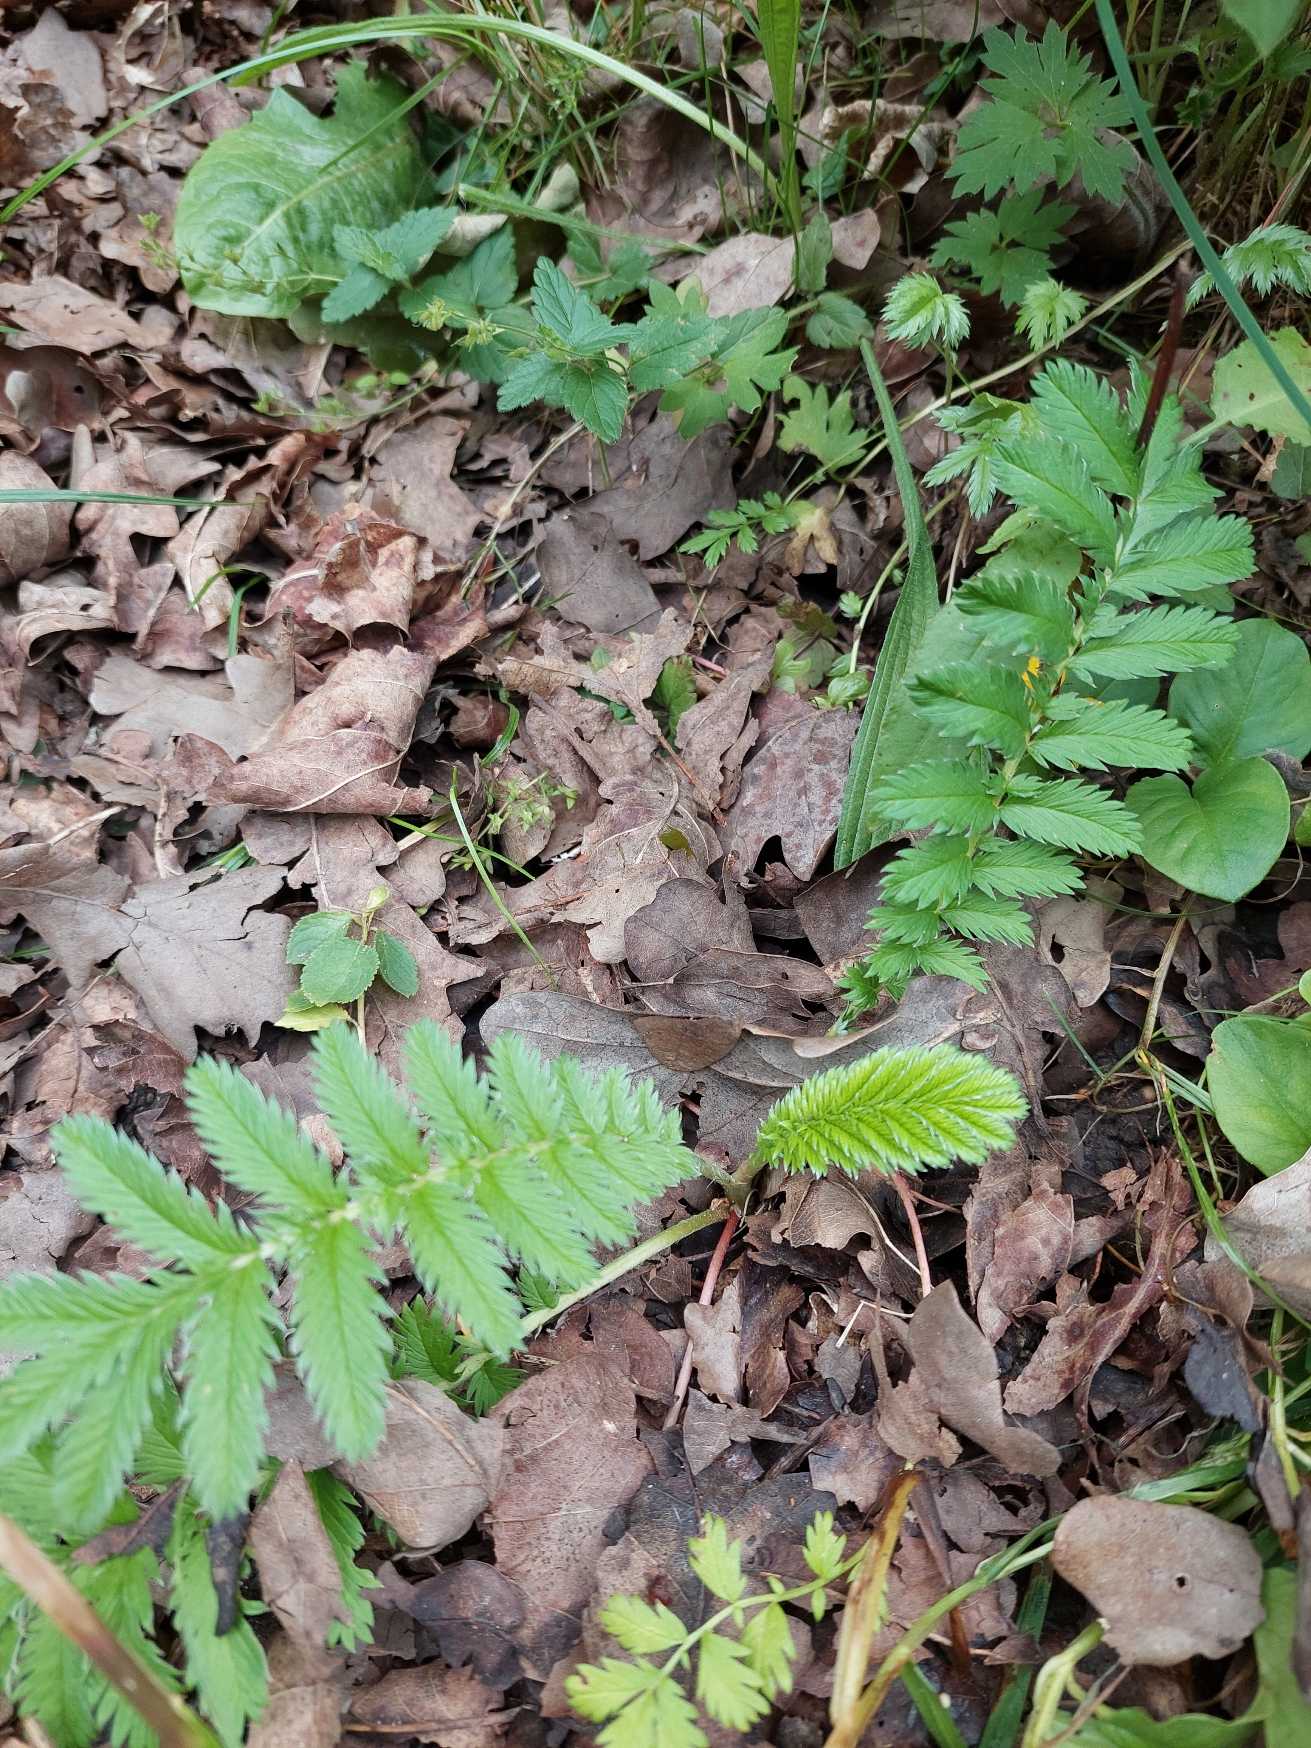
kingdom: Plantae
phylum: Tracheophyta
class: Magnoliopsida
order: Rosales
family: Rosaceae
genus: Argentina
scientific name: Argentina anserina
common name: Gåsepotentil
